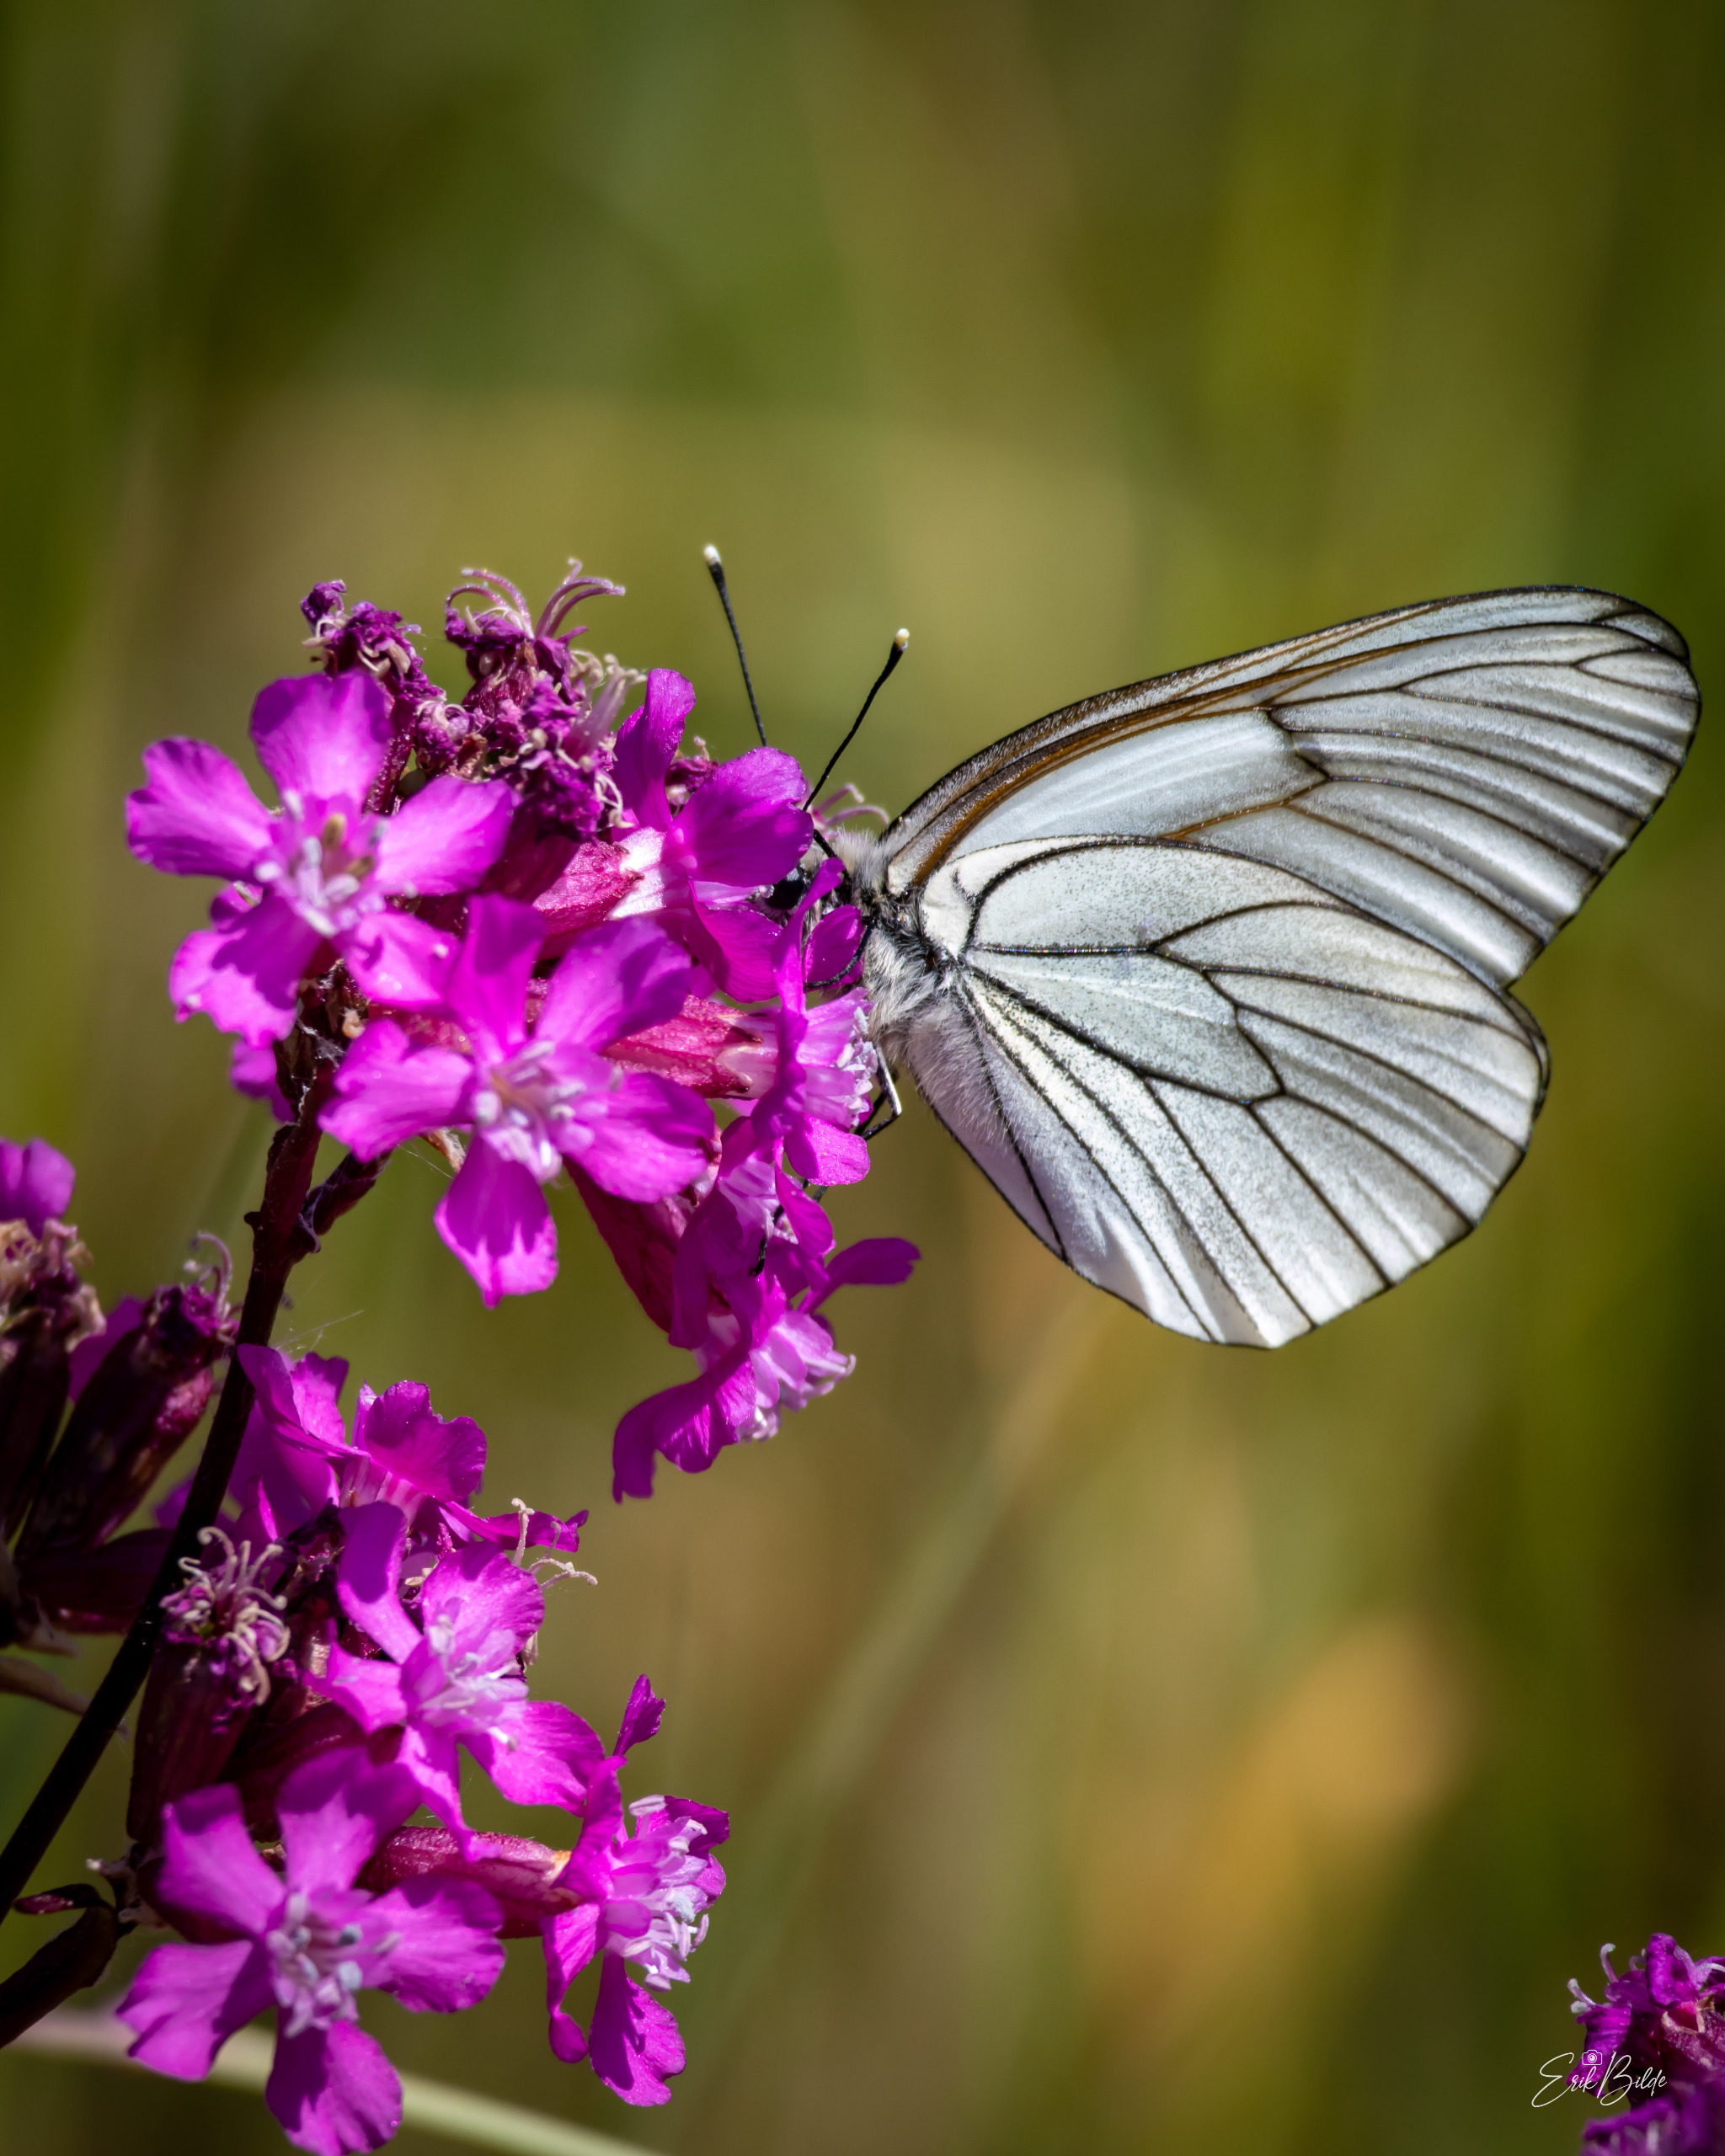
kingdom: Animalia
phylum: Arthropoda
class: Insecta
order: Lepidoptera
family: Pieridae
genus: Aporia
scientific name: Aporia crataegi
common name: Sortåret hvidvinge
